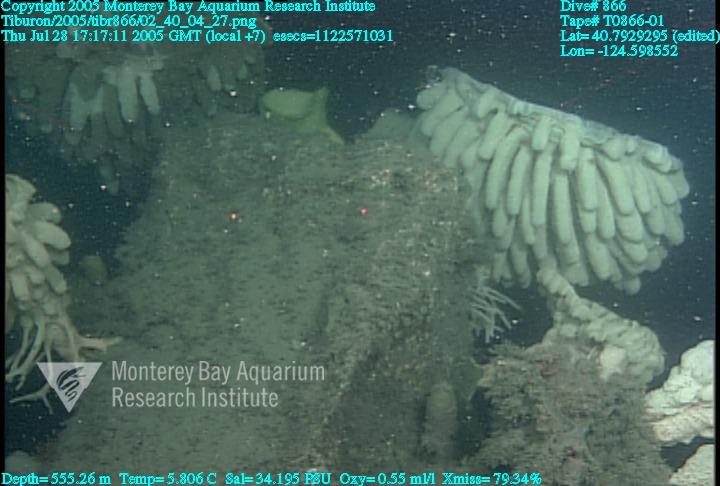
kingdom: Animalia
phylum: Porifera
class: Hexactinellida
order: Sceptrulophora
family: Aphrocallistidae
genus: Heterochone
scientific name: Heterochone calyx
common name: Fingered goblet glass sponge
